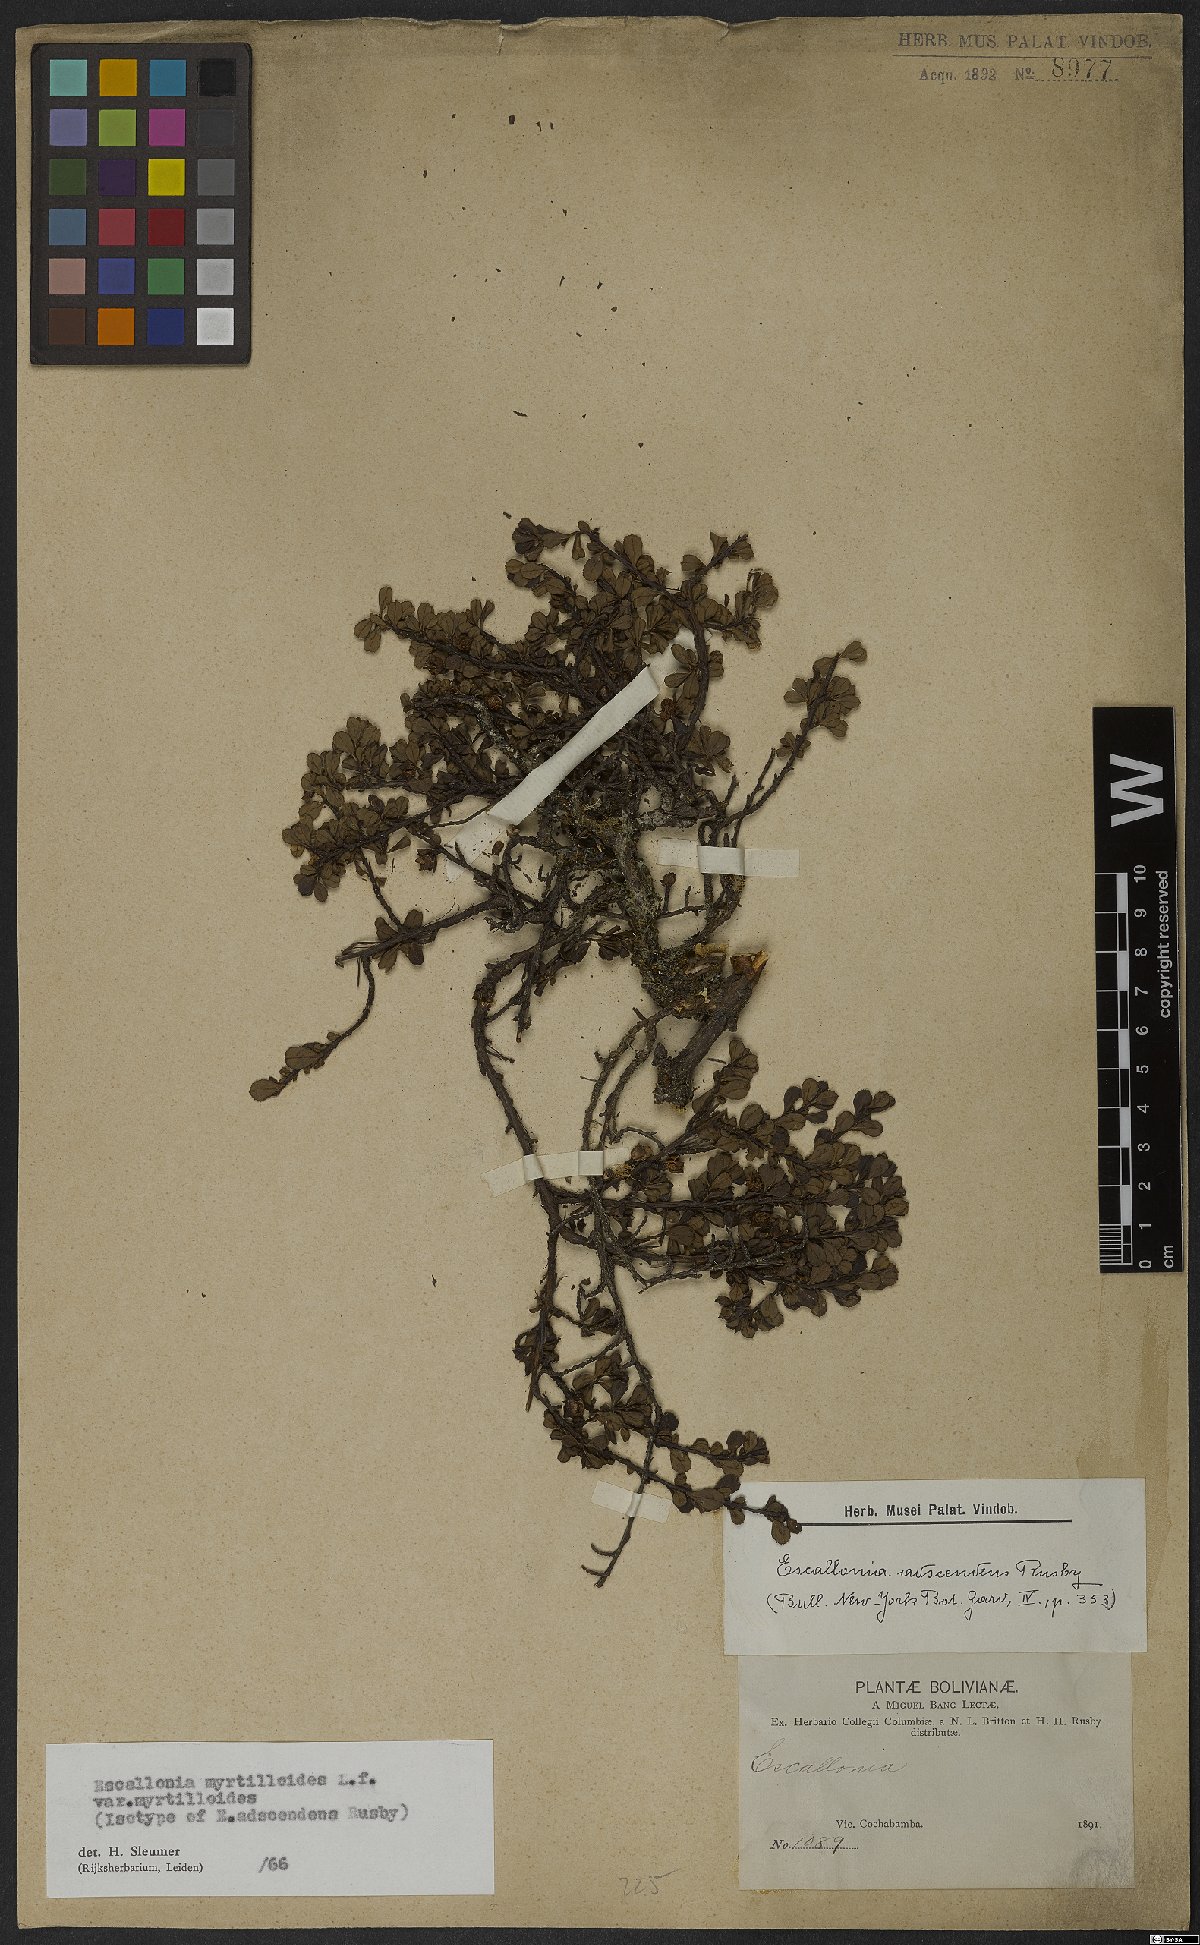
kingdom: Plantae
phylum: Tracheophyta
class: Magnoliopsida
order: Escalloniales
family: Escalloniaceae
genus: Escallonia
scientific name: Escallonia myrtilloides
